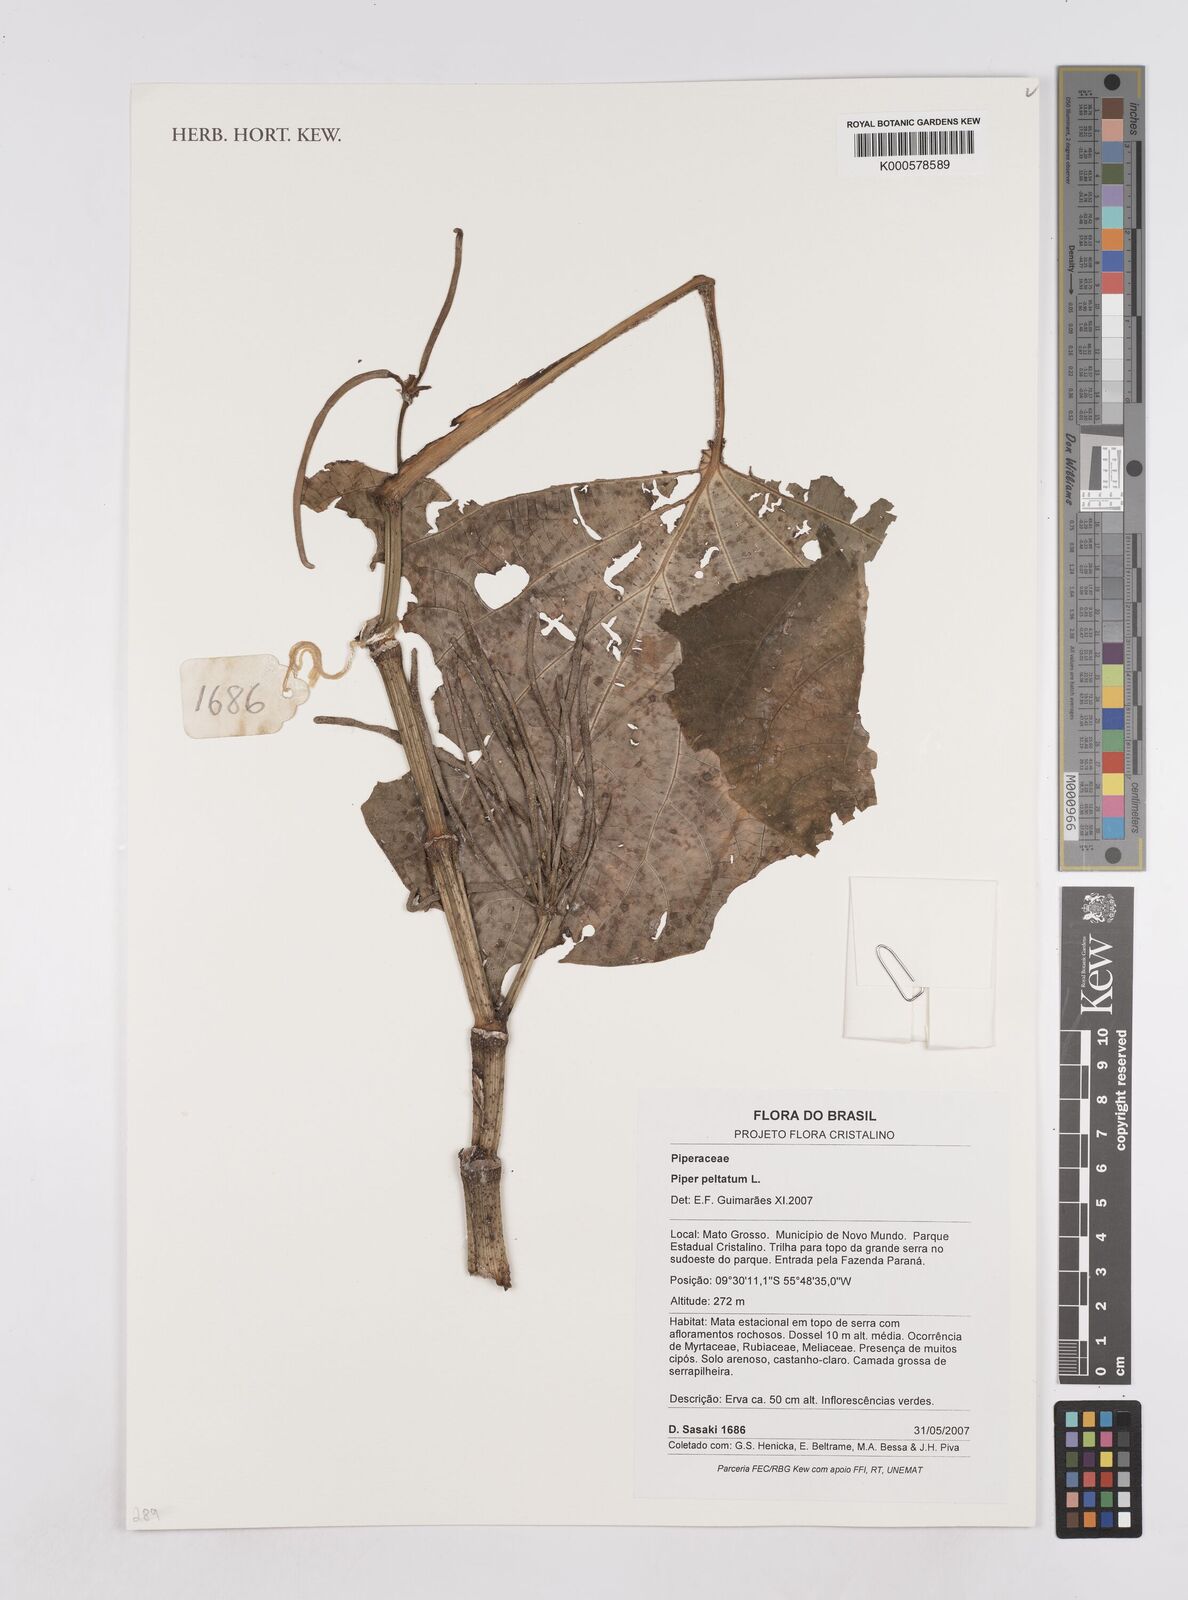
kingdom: Plantae
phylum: Tracheophyta
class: Magnoliopsida
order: Piperales
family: Piperaceae
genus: Piper
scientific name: Piper peltatum
